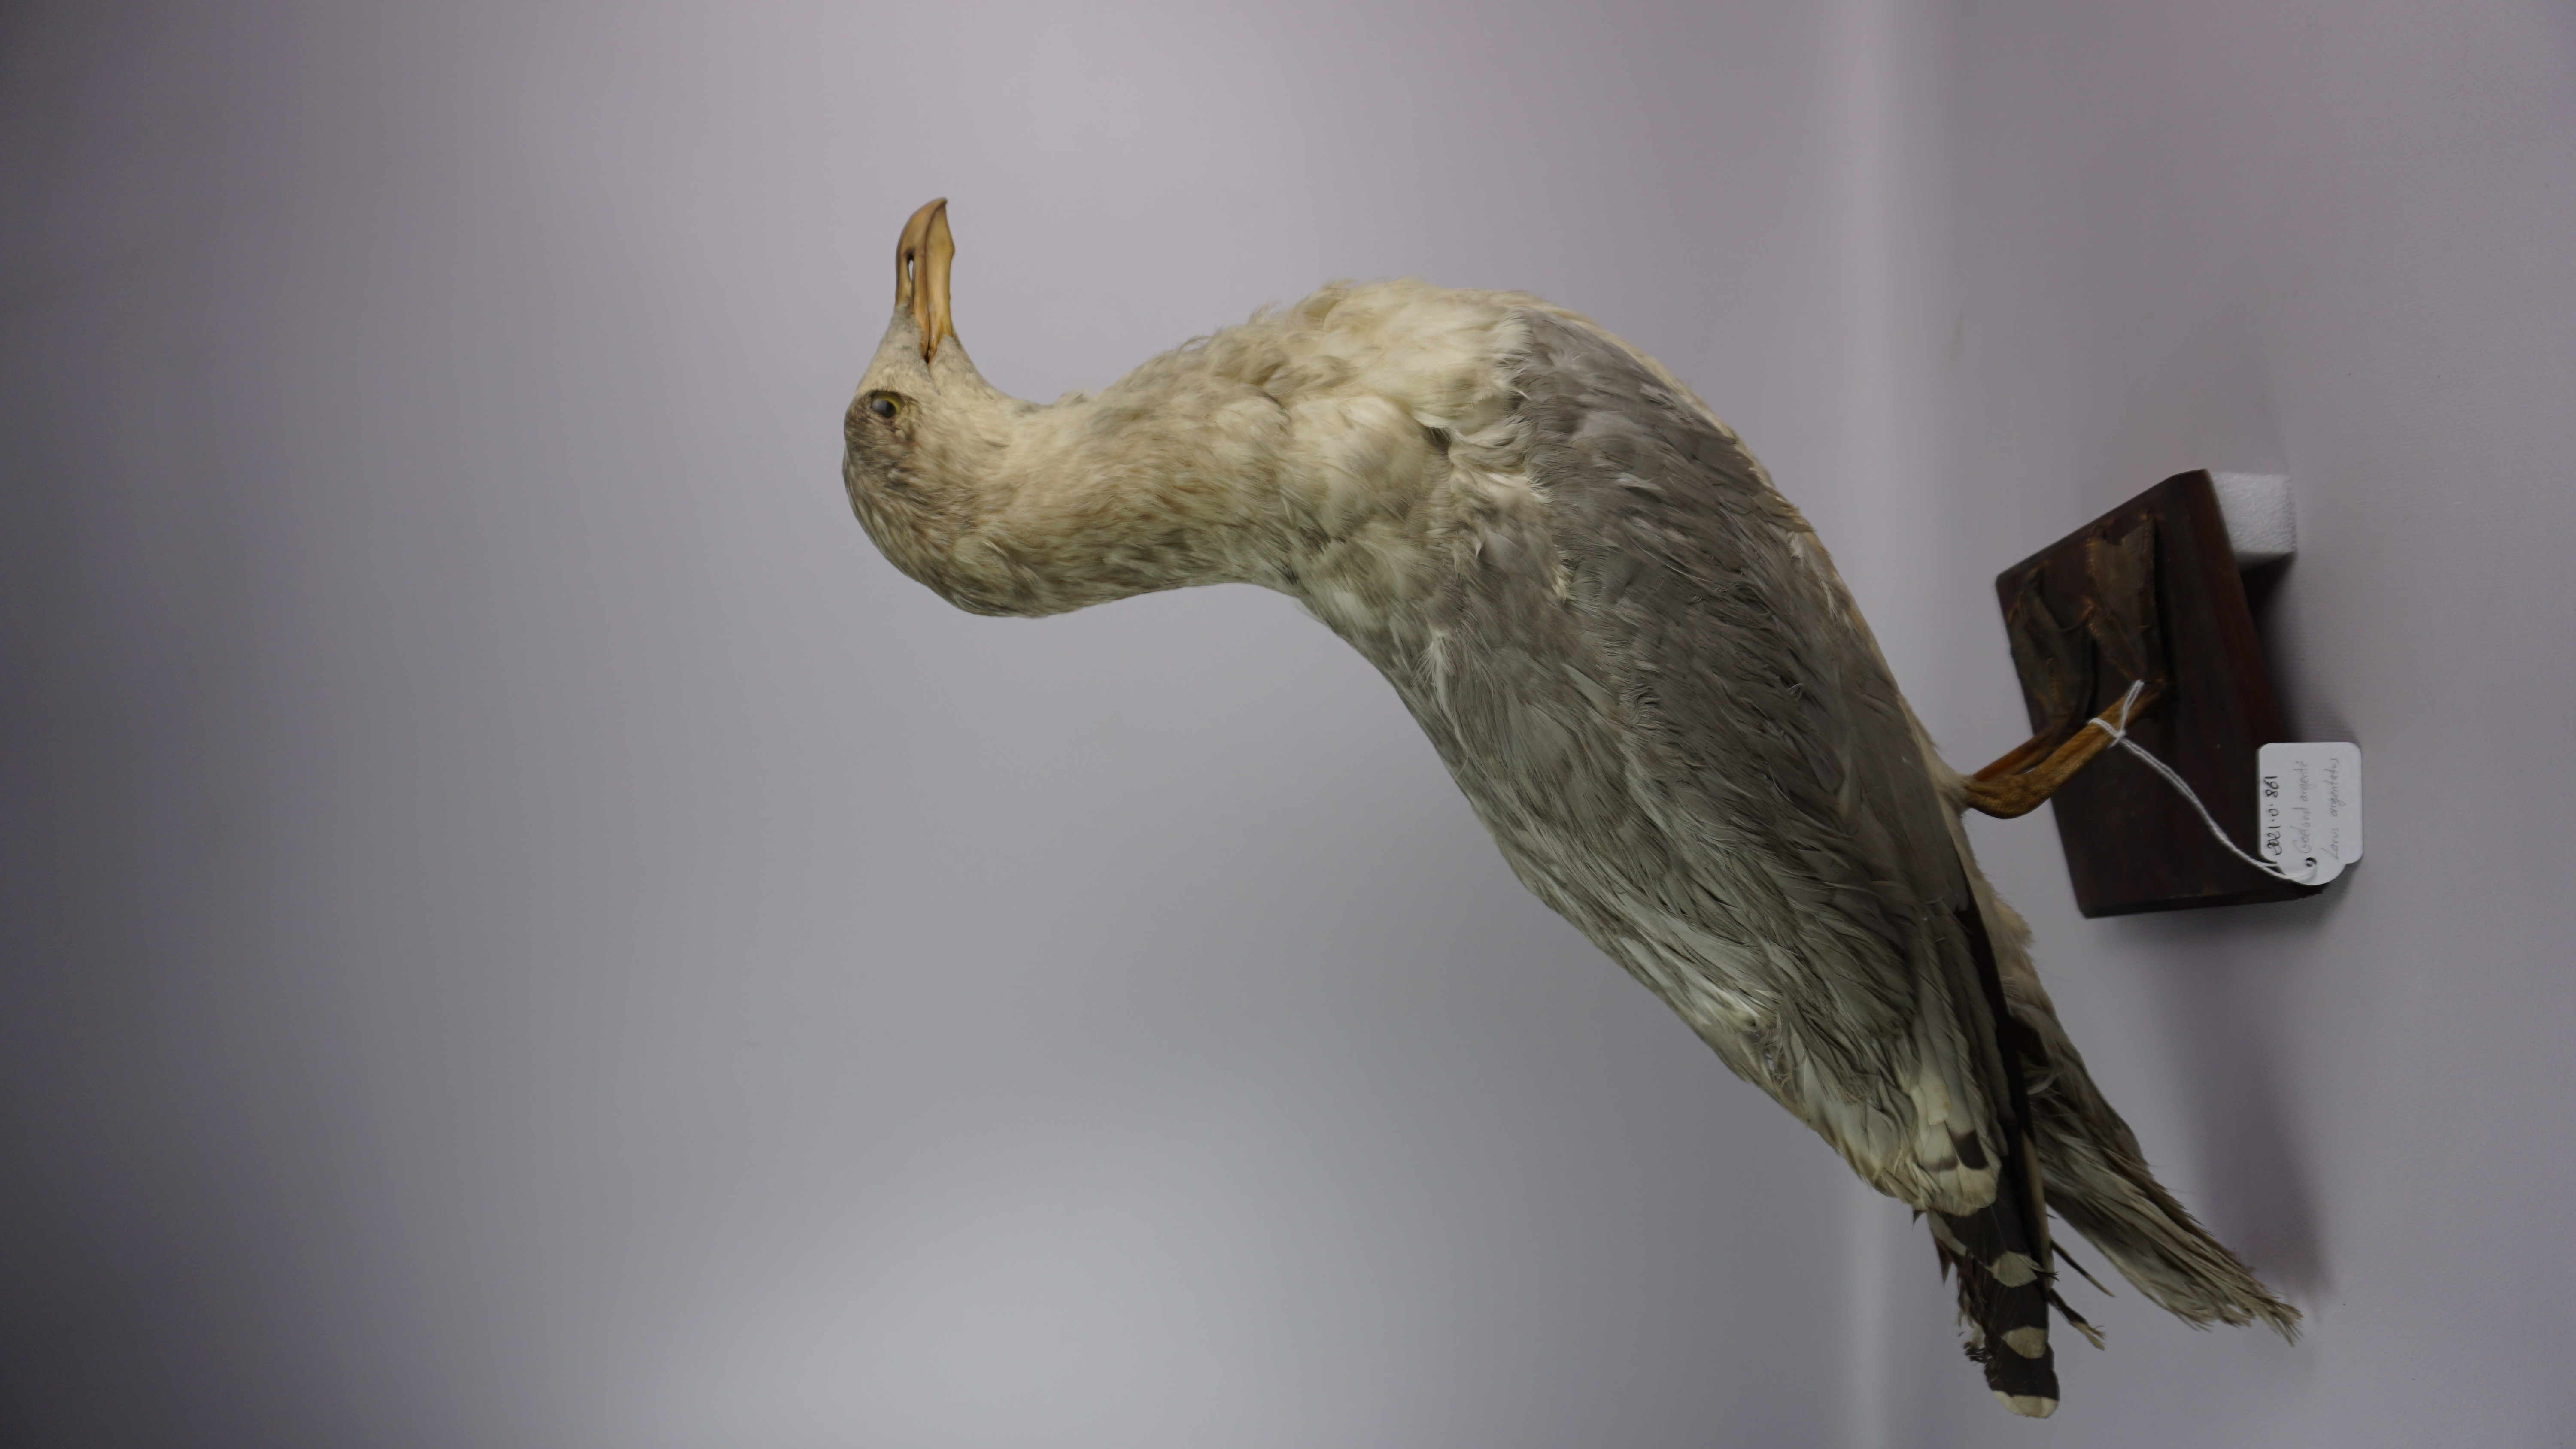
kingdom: Animalia
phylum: Chordata
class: Aves
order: Charadriiformes
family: Laridae
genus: Larus
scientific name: Larus argentatus
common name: Herring gull
